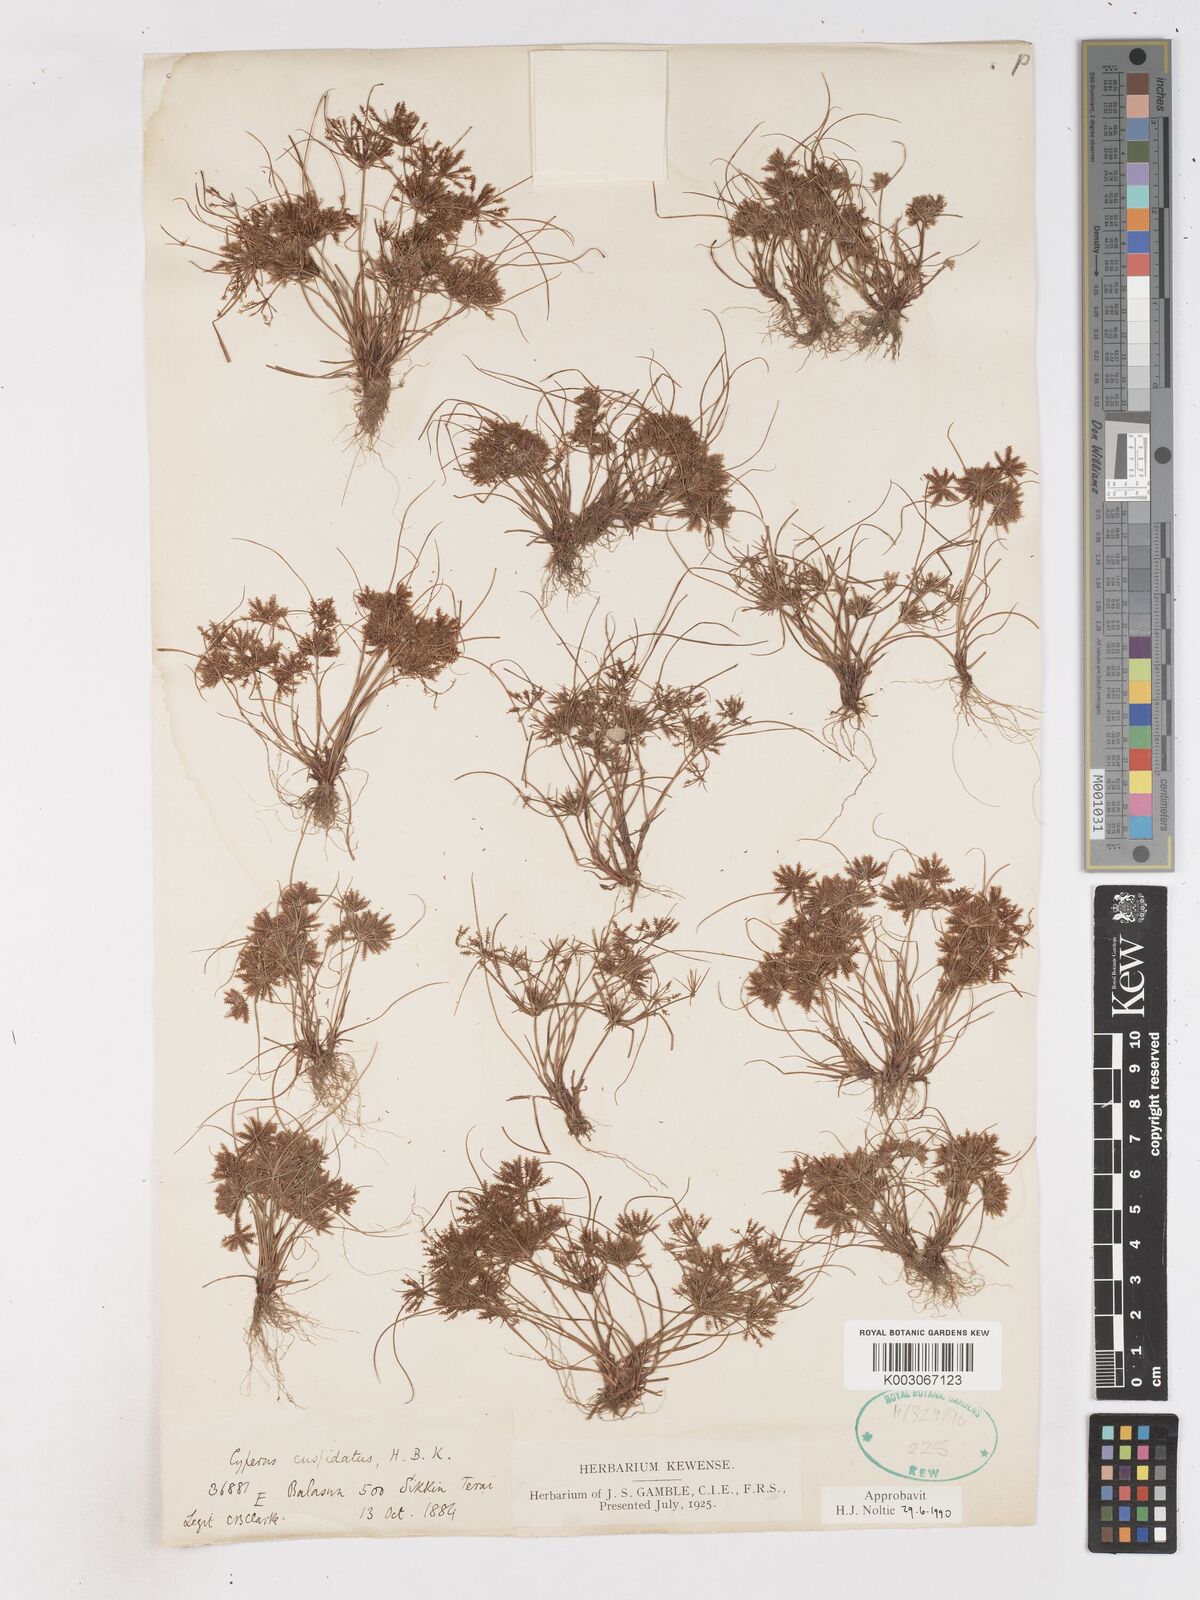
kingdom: Plantae
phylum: Tracheophyta
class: Liliopsida
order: Poales
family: Cyperaceae
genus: Cyperus
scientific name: Cyperus cuspidatus
